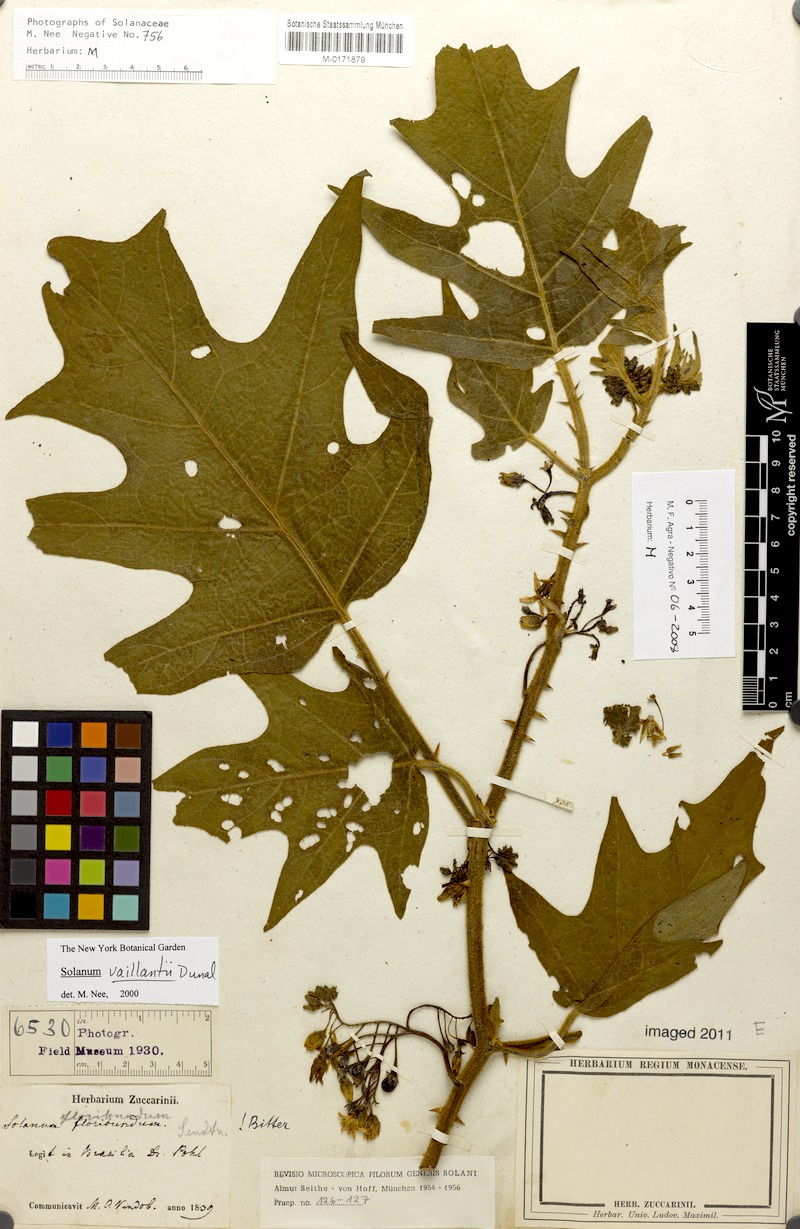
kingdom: Plantae
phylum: Tracheophyta
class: Magnoliopsida
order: Solanales
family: Solanaceae
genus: Solanum
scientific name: Solanum vaillantii
